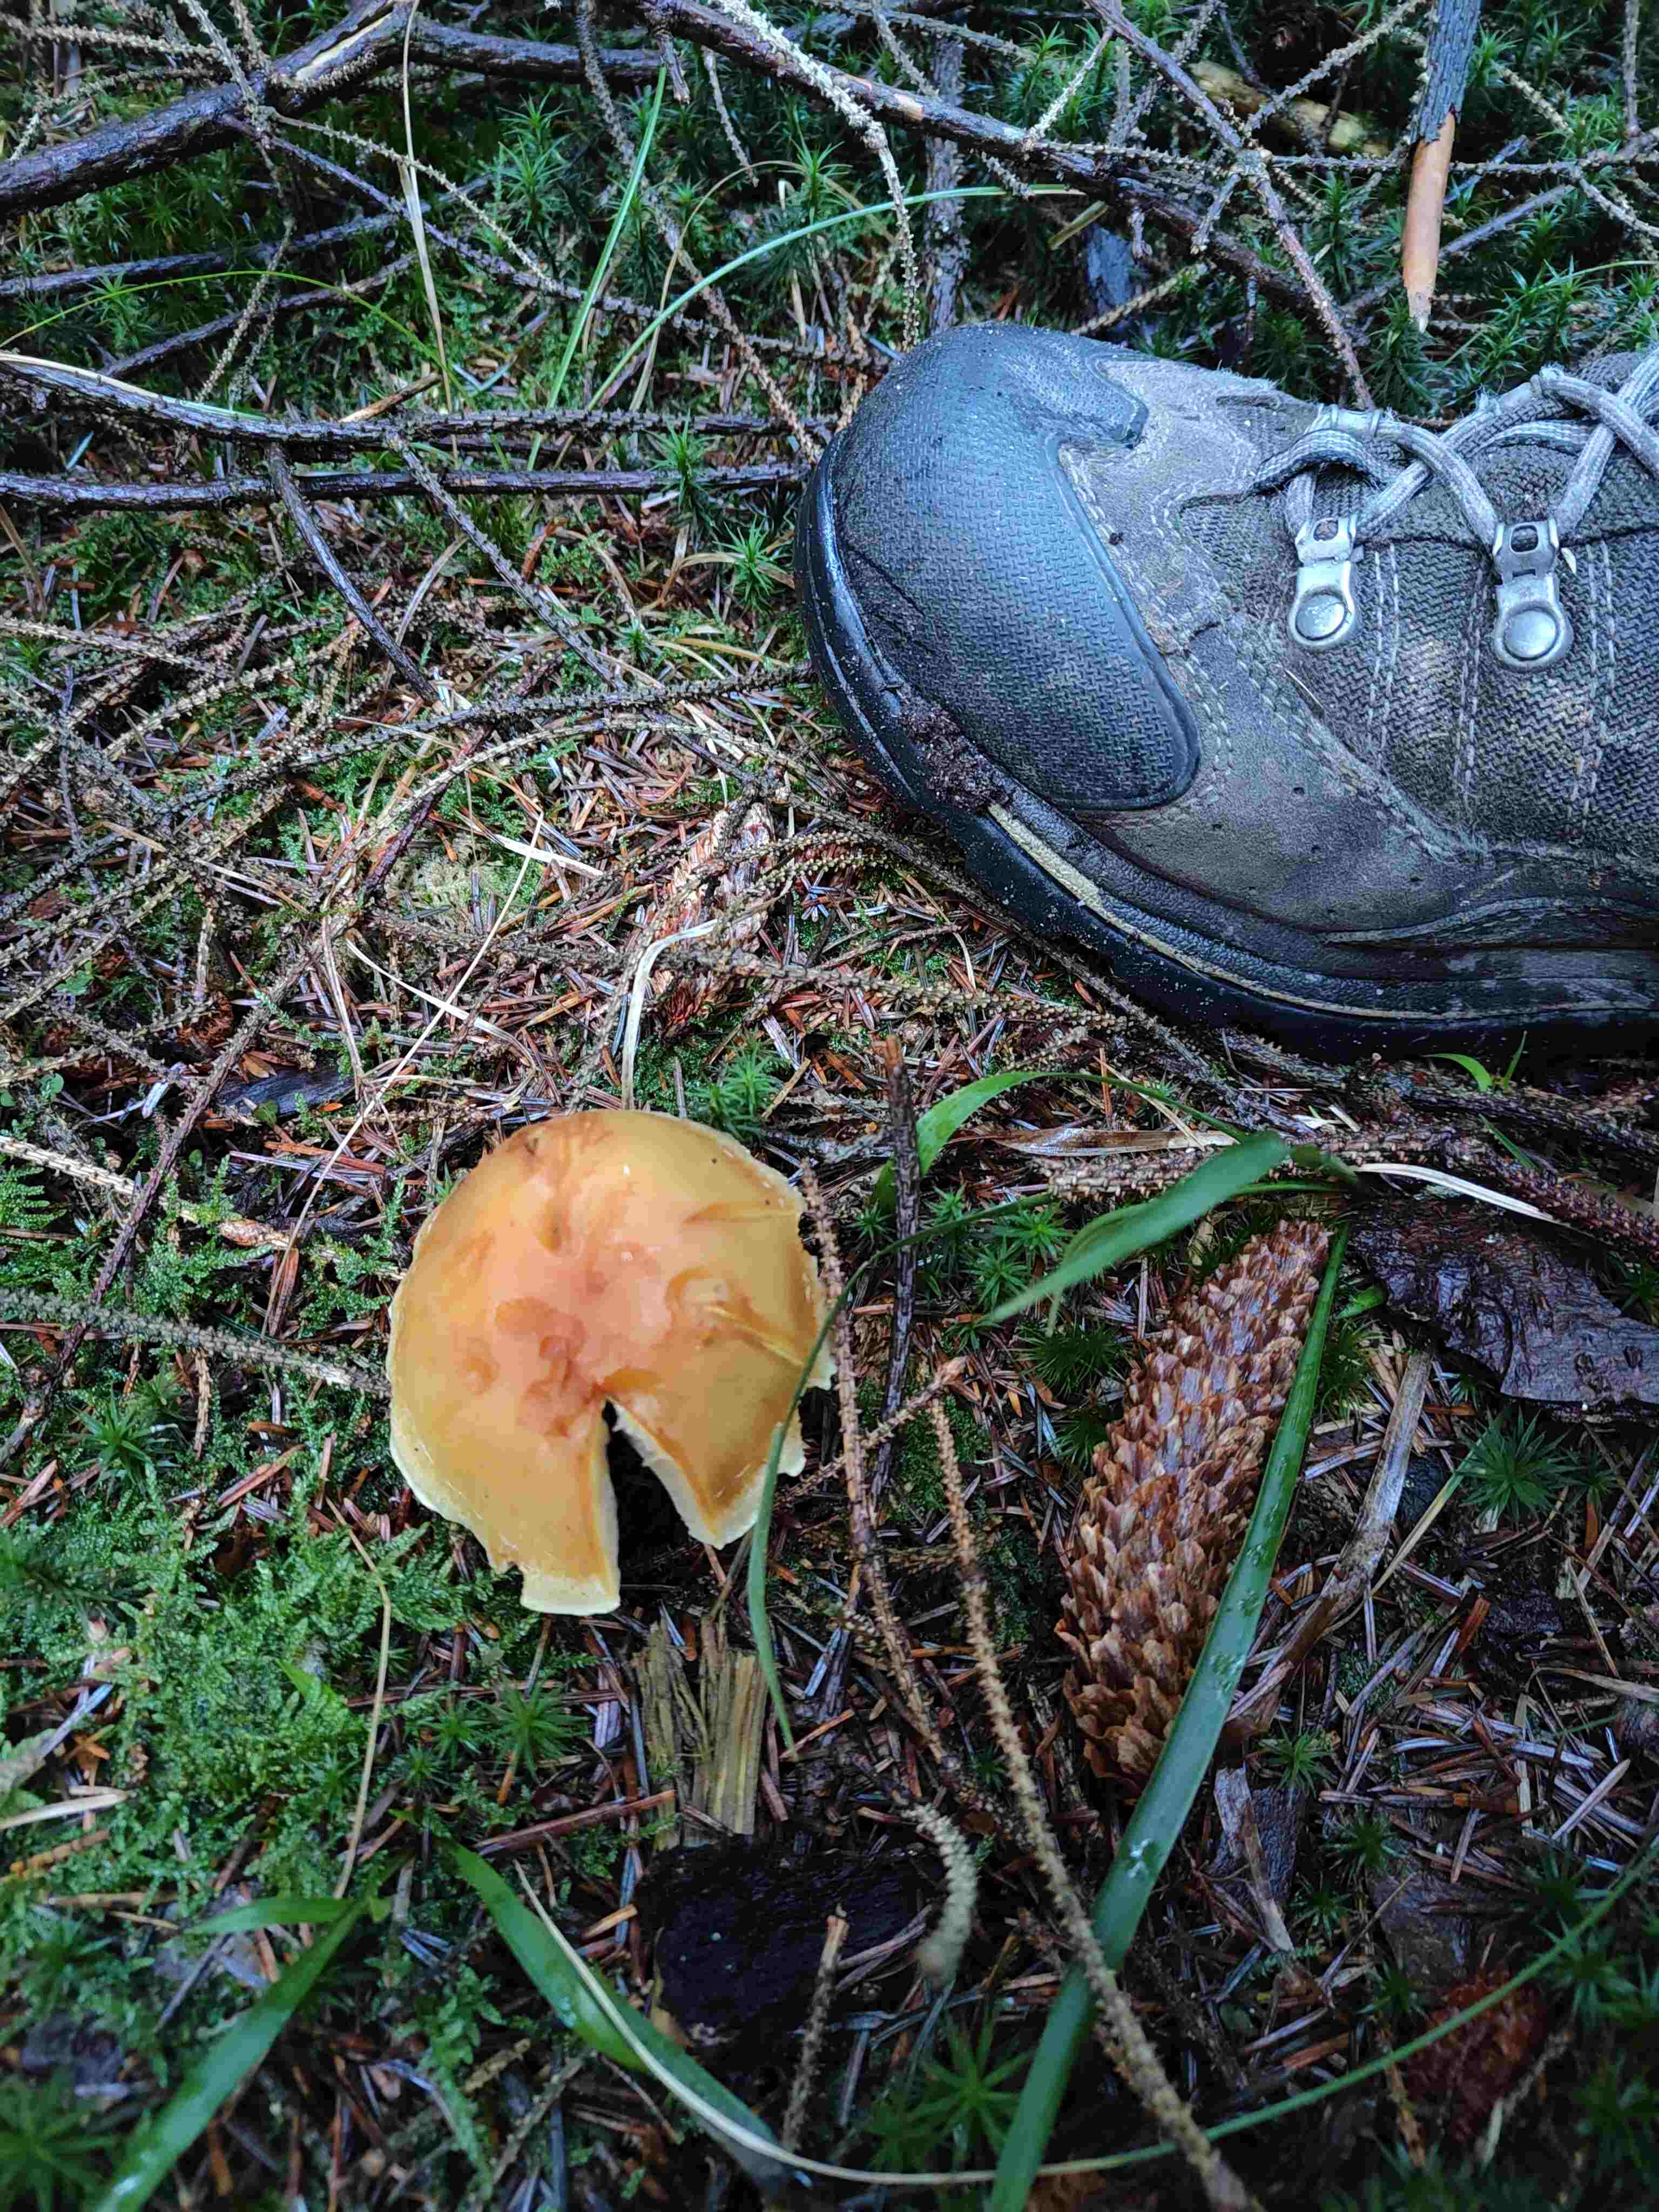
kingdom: Fungi
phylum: Basidiomycota
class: Agaricomycetes
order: Agaricales
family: Strophariaceae
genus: Hypholoma
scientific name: Hypholoma capnoides
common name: gran-svovlhat
